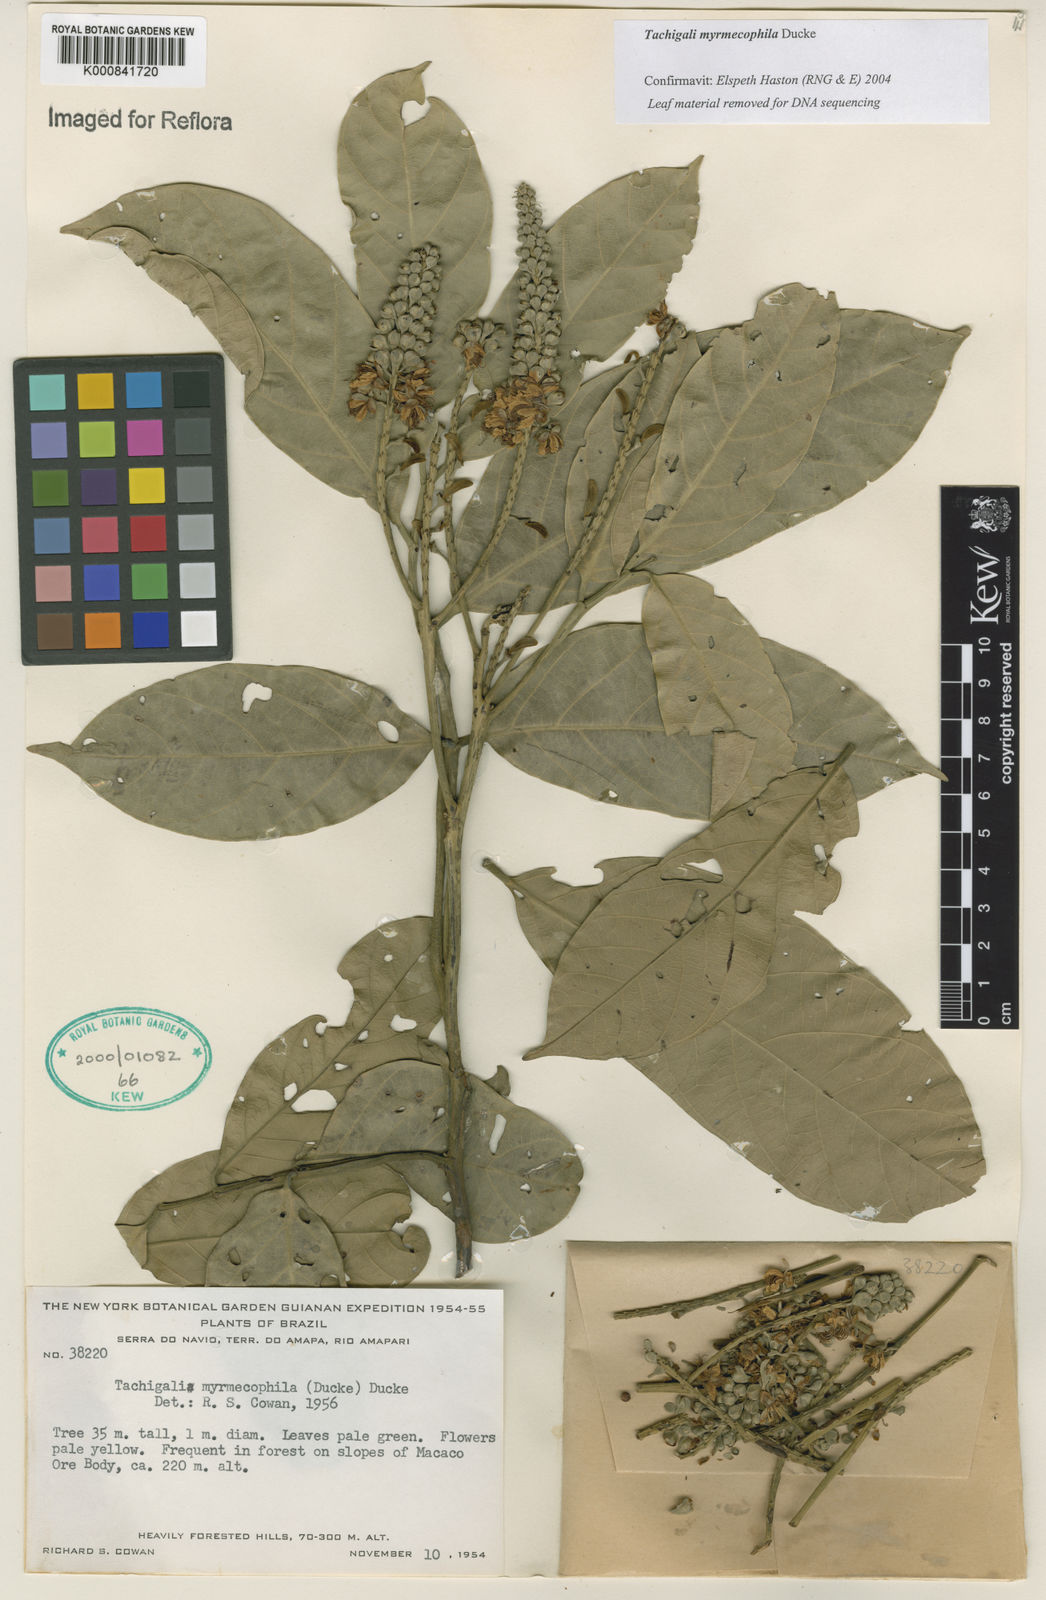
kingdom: Plantae
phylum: Tracheophyta
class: Magnoliopsida
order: Fabales
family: Fabaceae
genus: Tachigali
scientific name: Tachigali glauca
